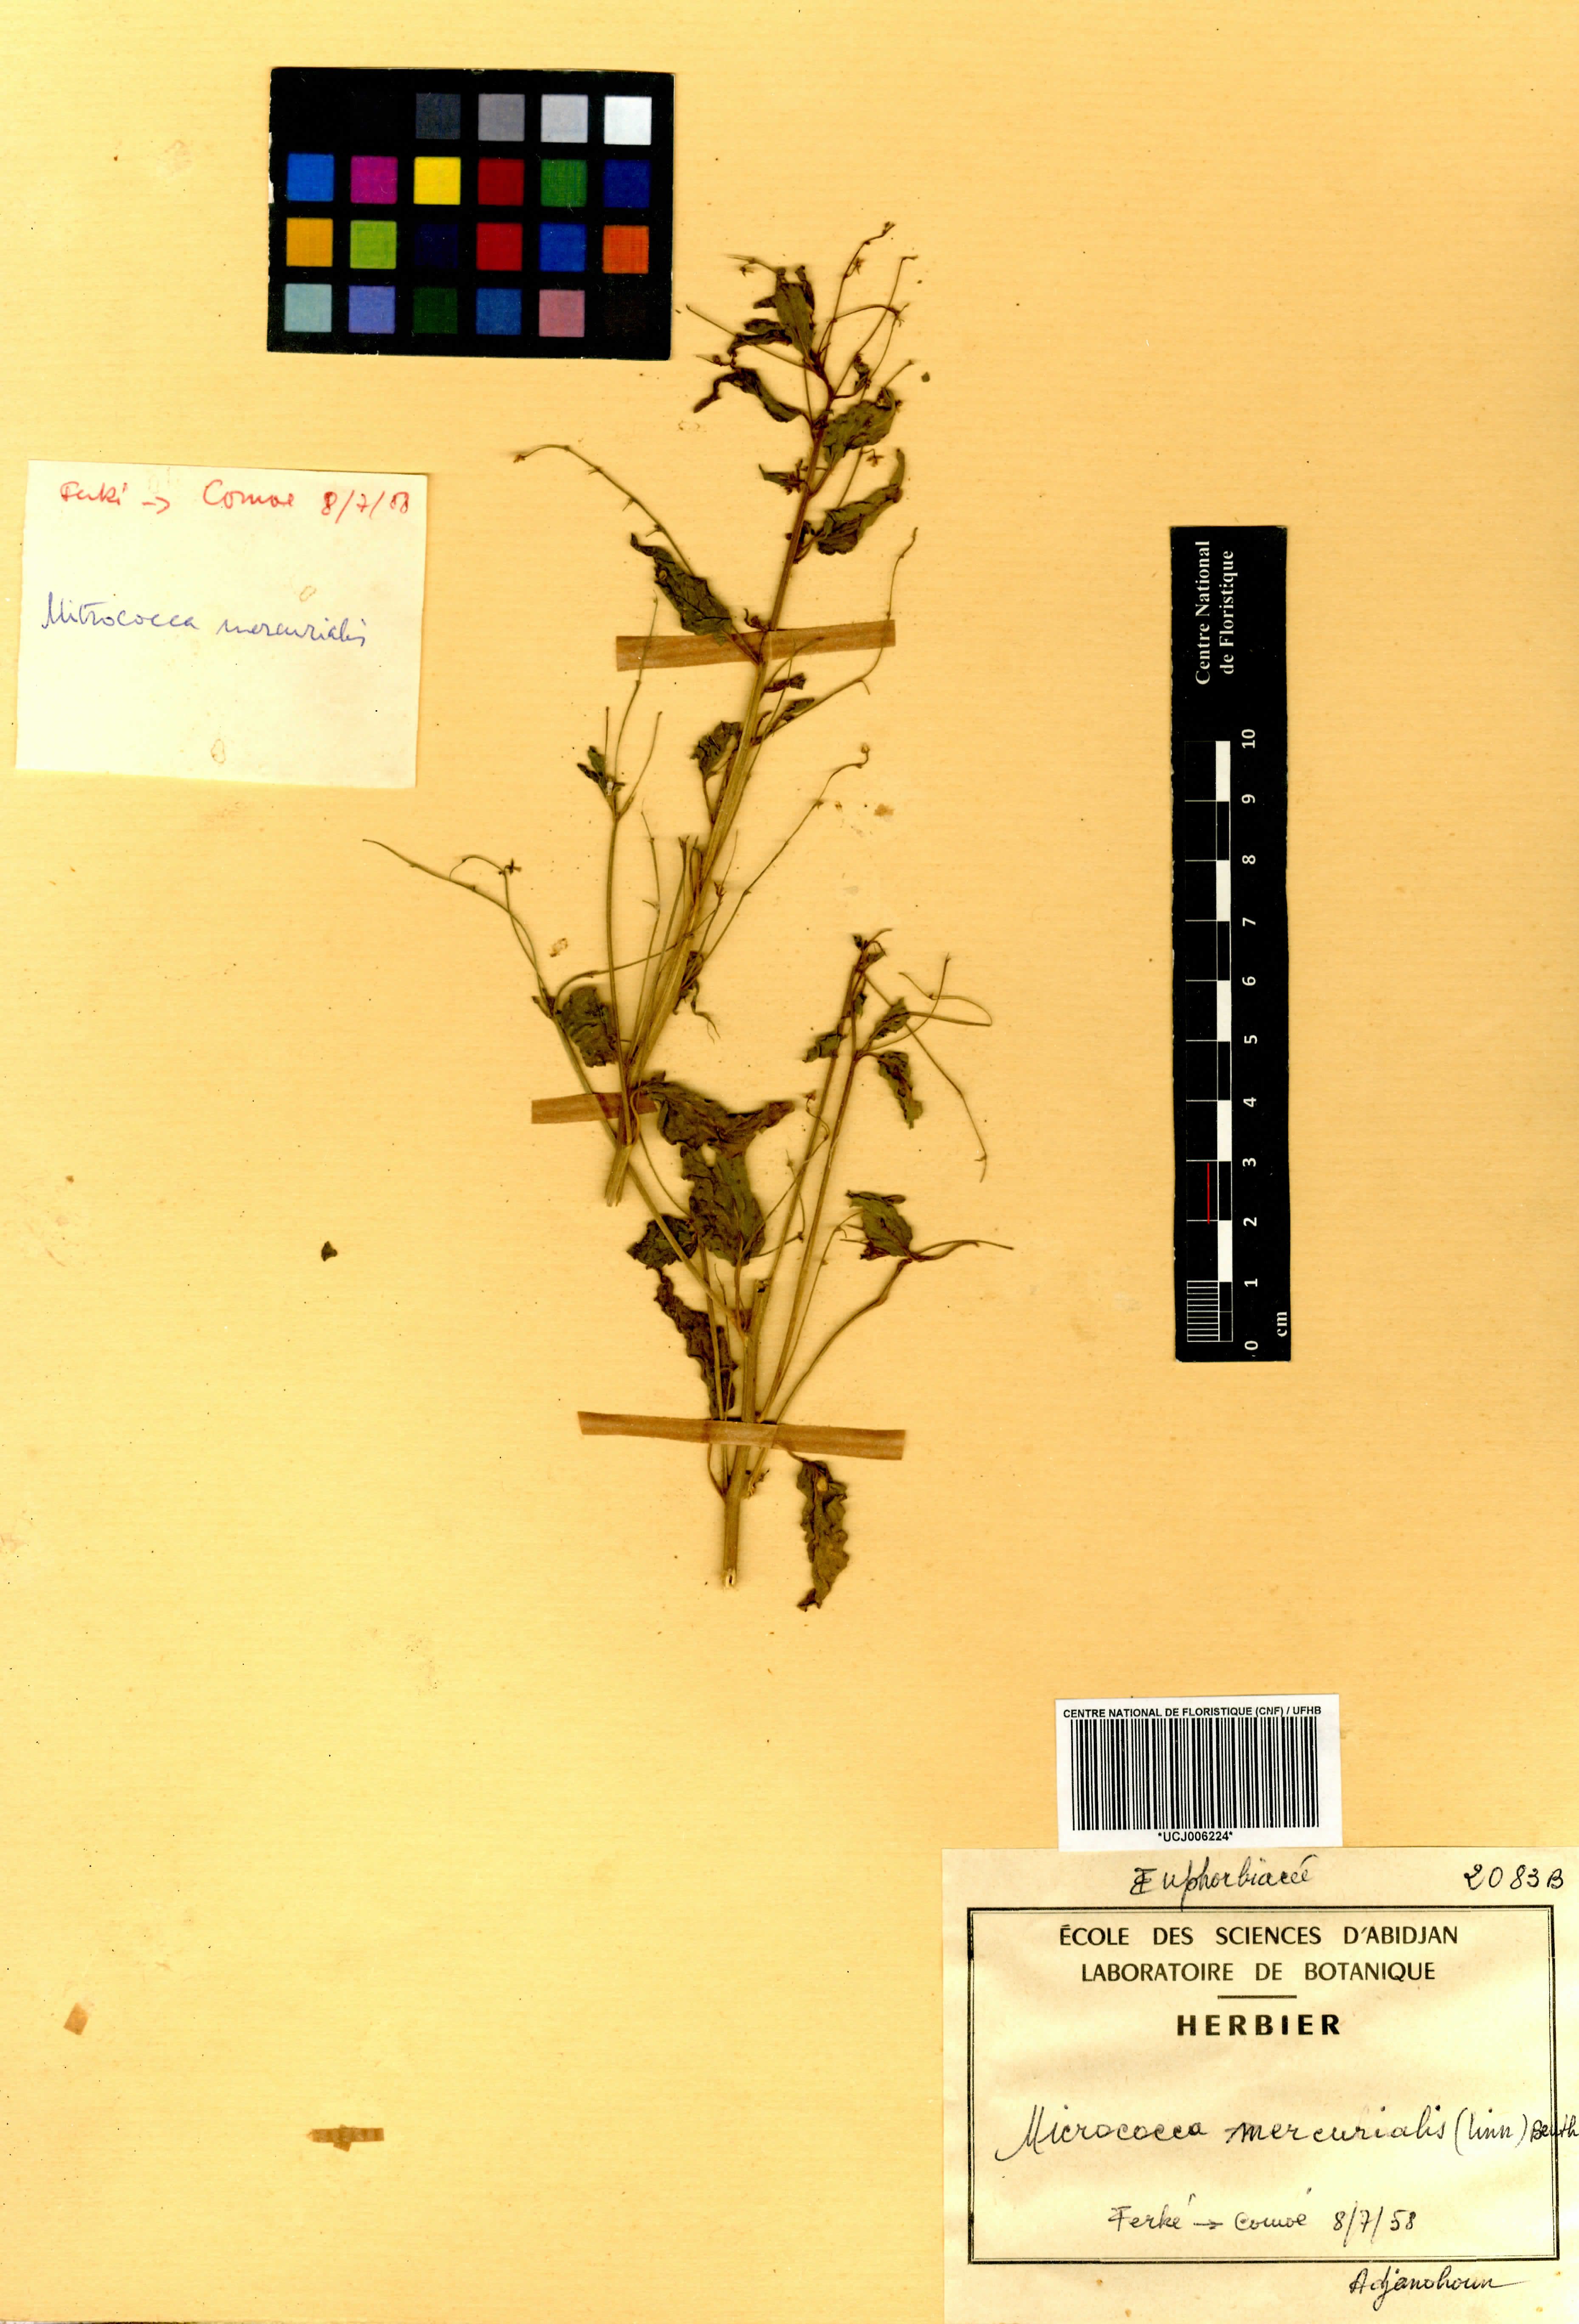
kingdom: Plantae
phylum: Tracheophyta
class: Magnoliopsida
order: Malpighiales
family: Euphorbiaceae
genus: Micrococca
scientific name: Micrococca mercurialis
